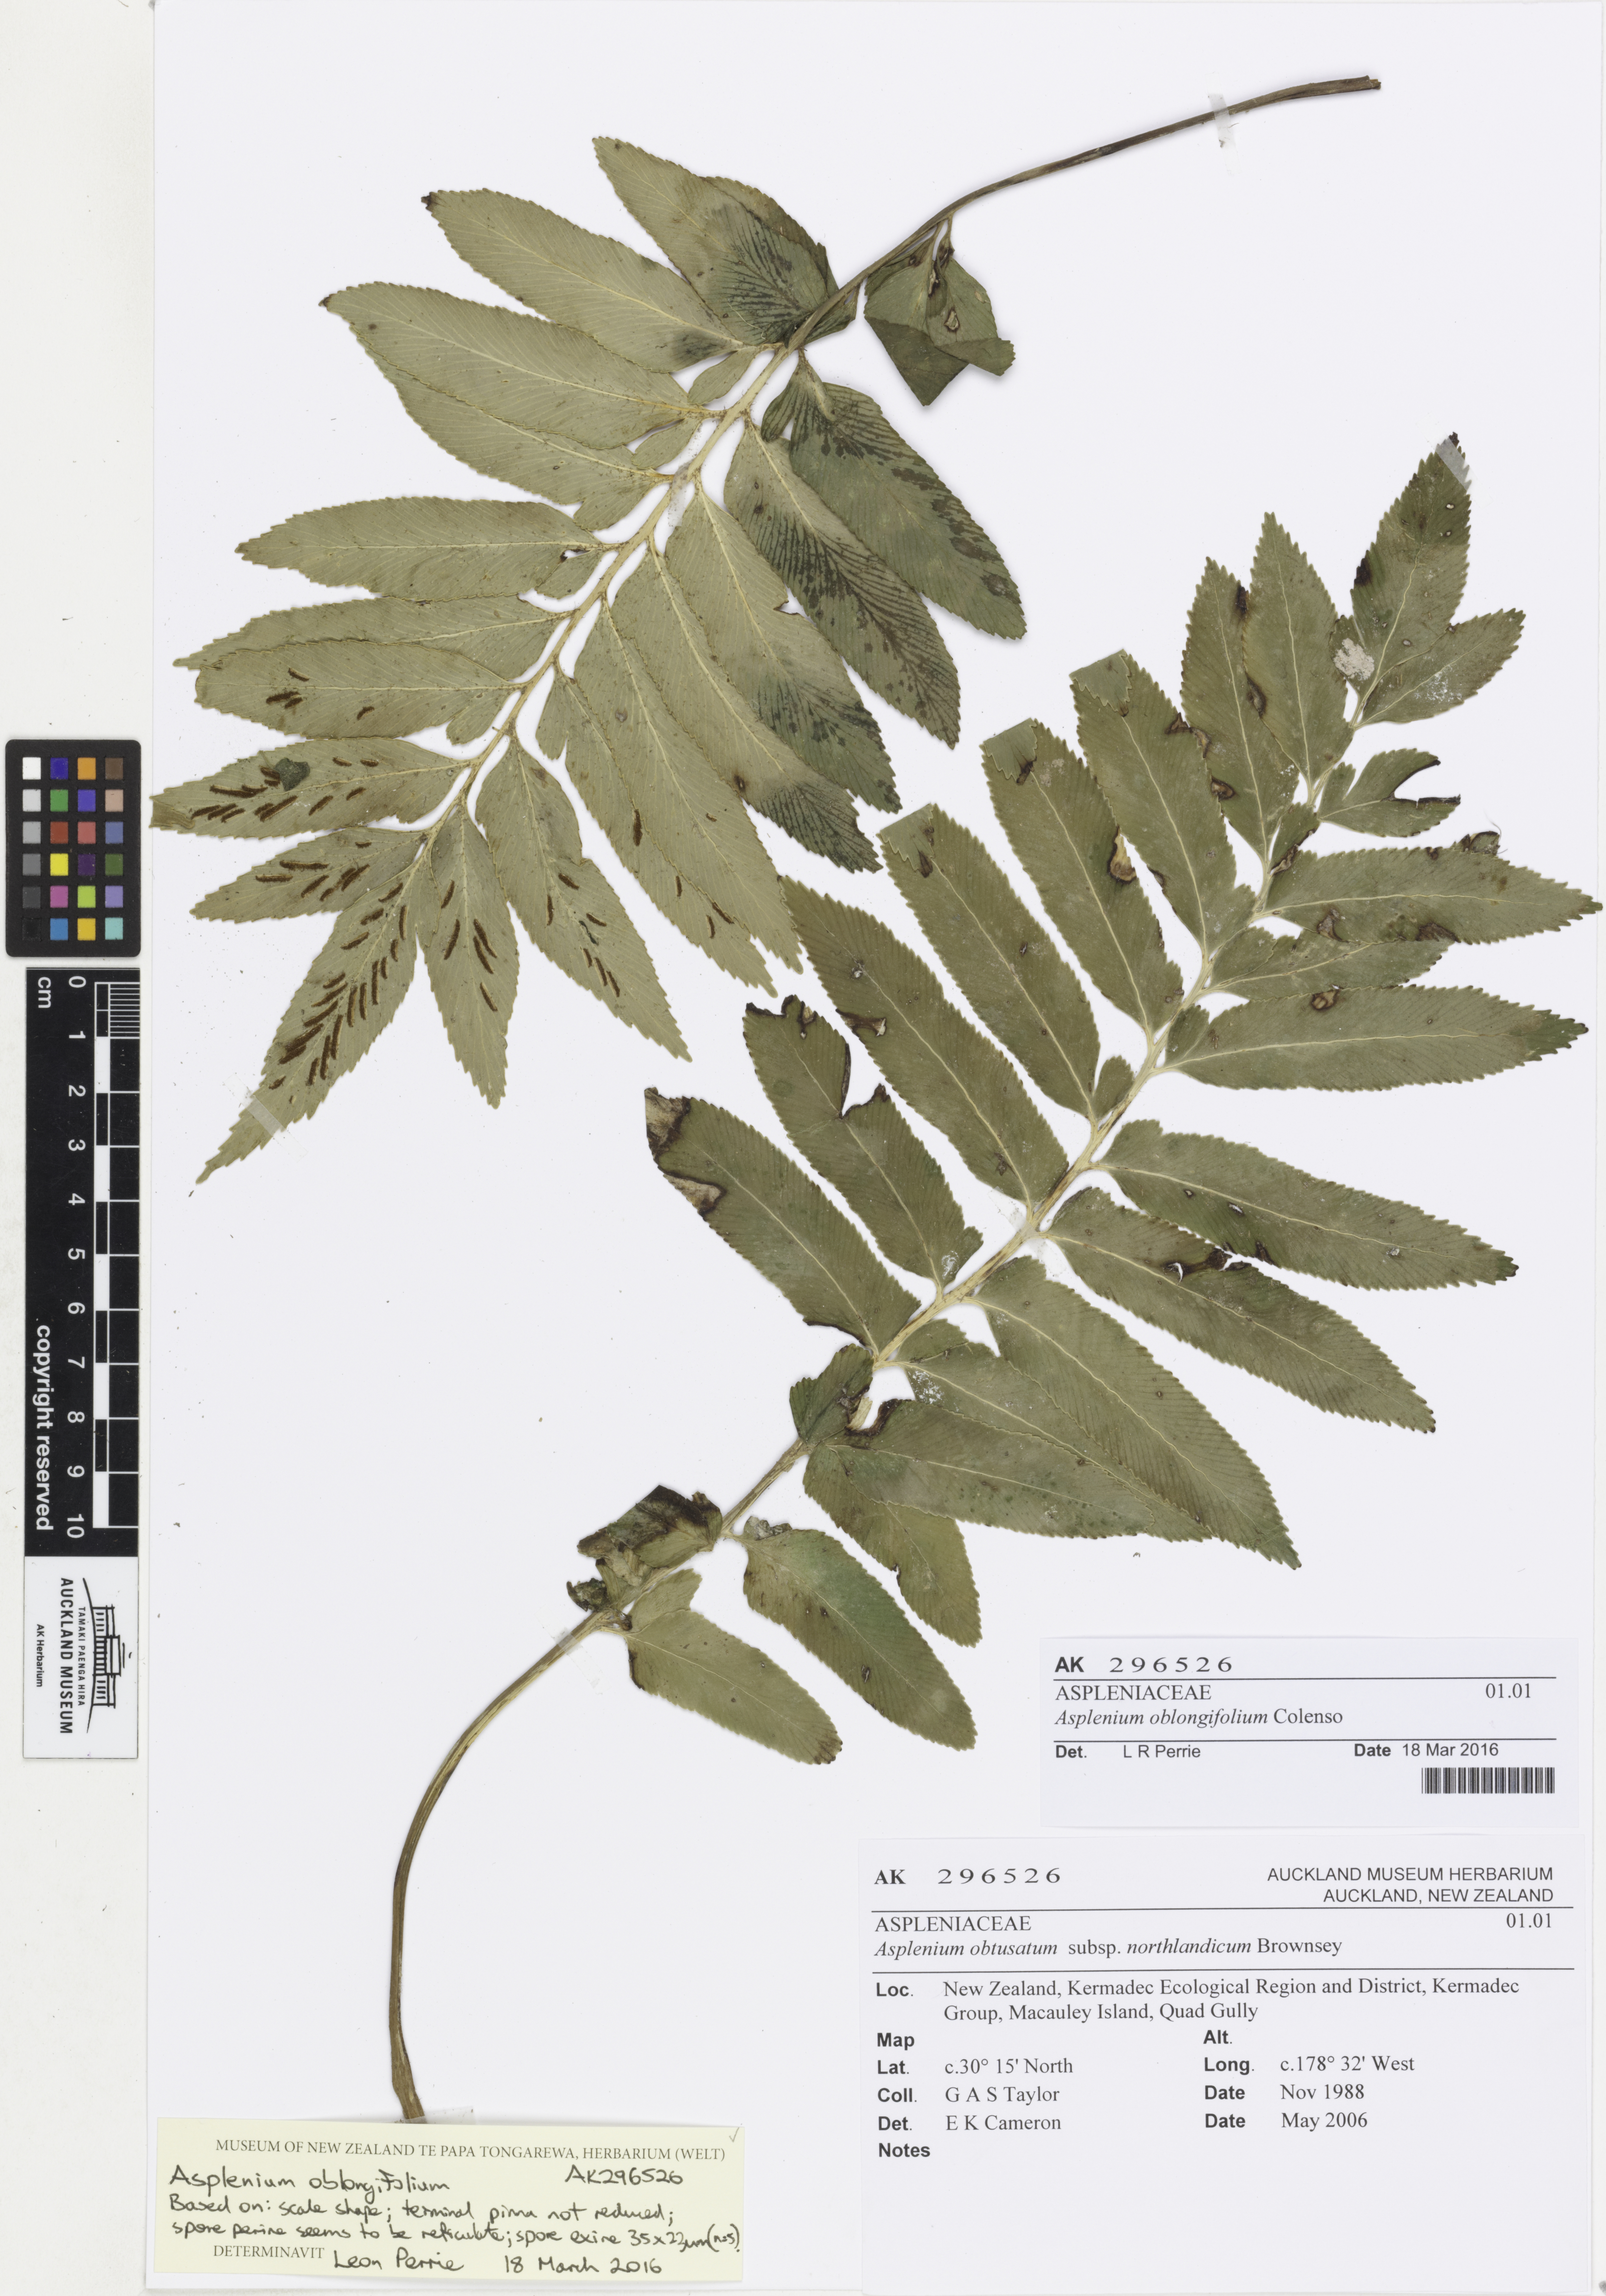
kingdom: Plantae
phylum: Tracheophyta
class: Polypodiopsida
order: Polypodiales
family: Aspleniaceae
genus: Asplenium
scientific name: Asplenium oblongifolium
